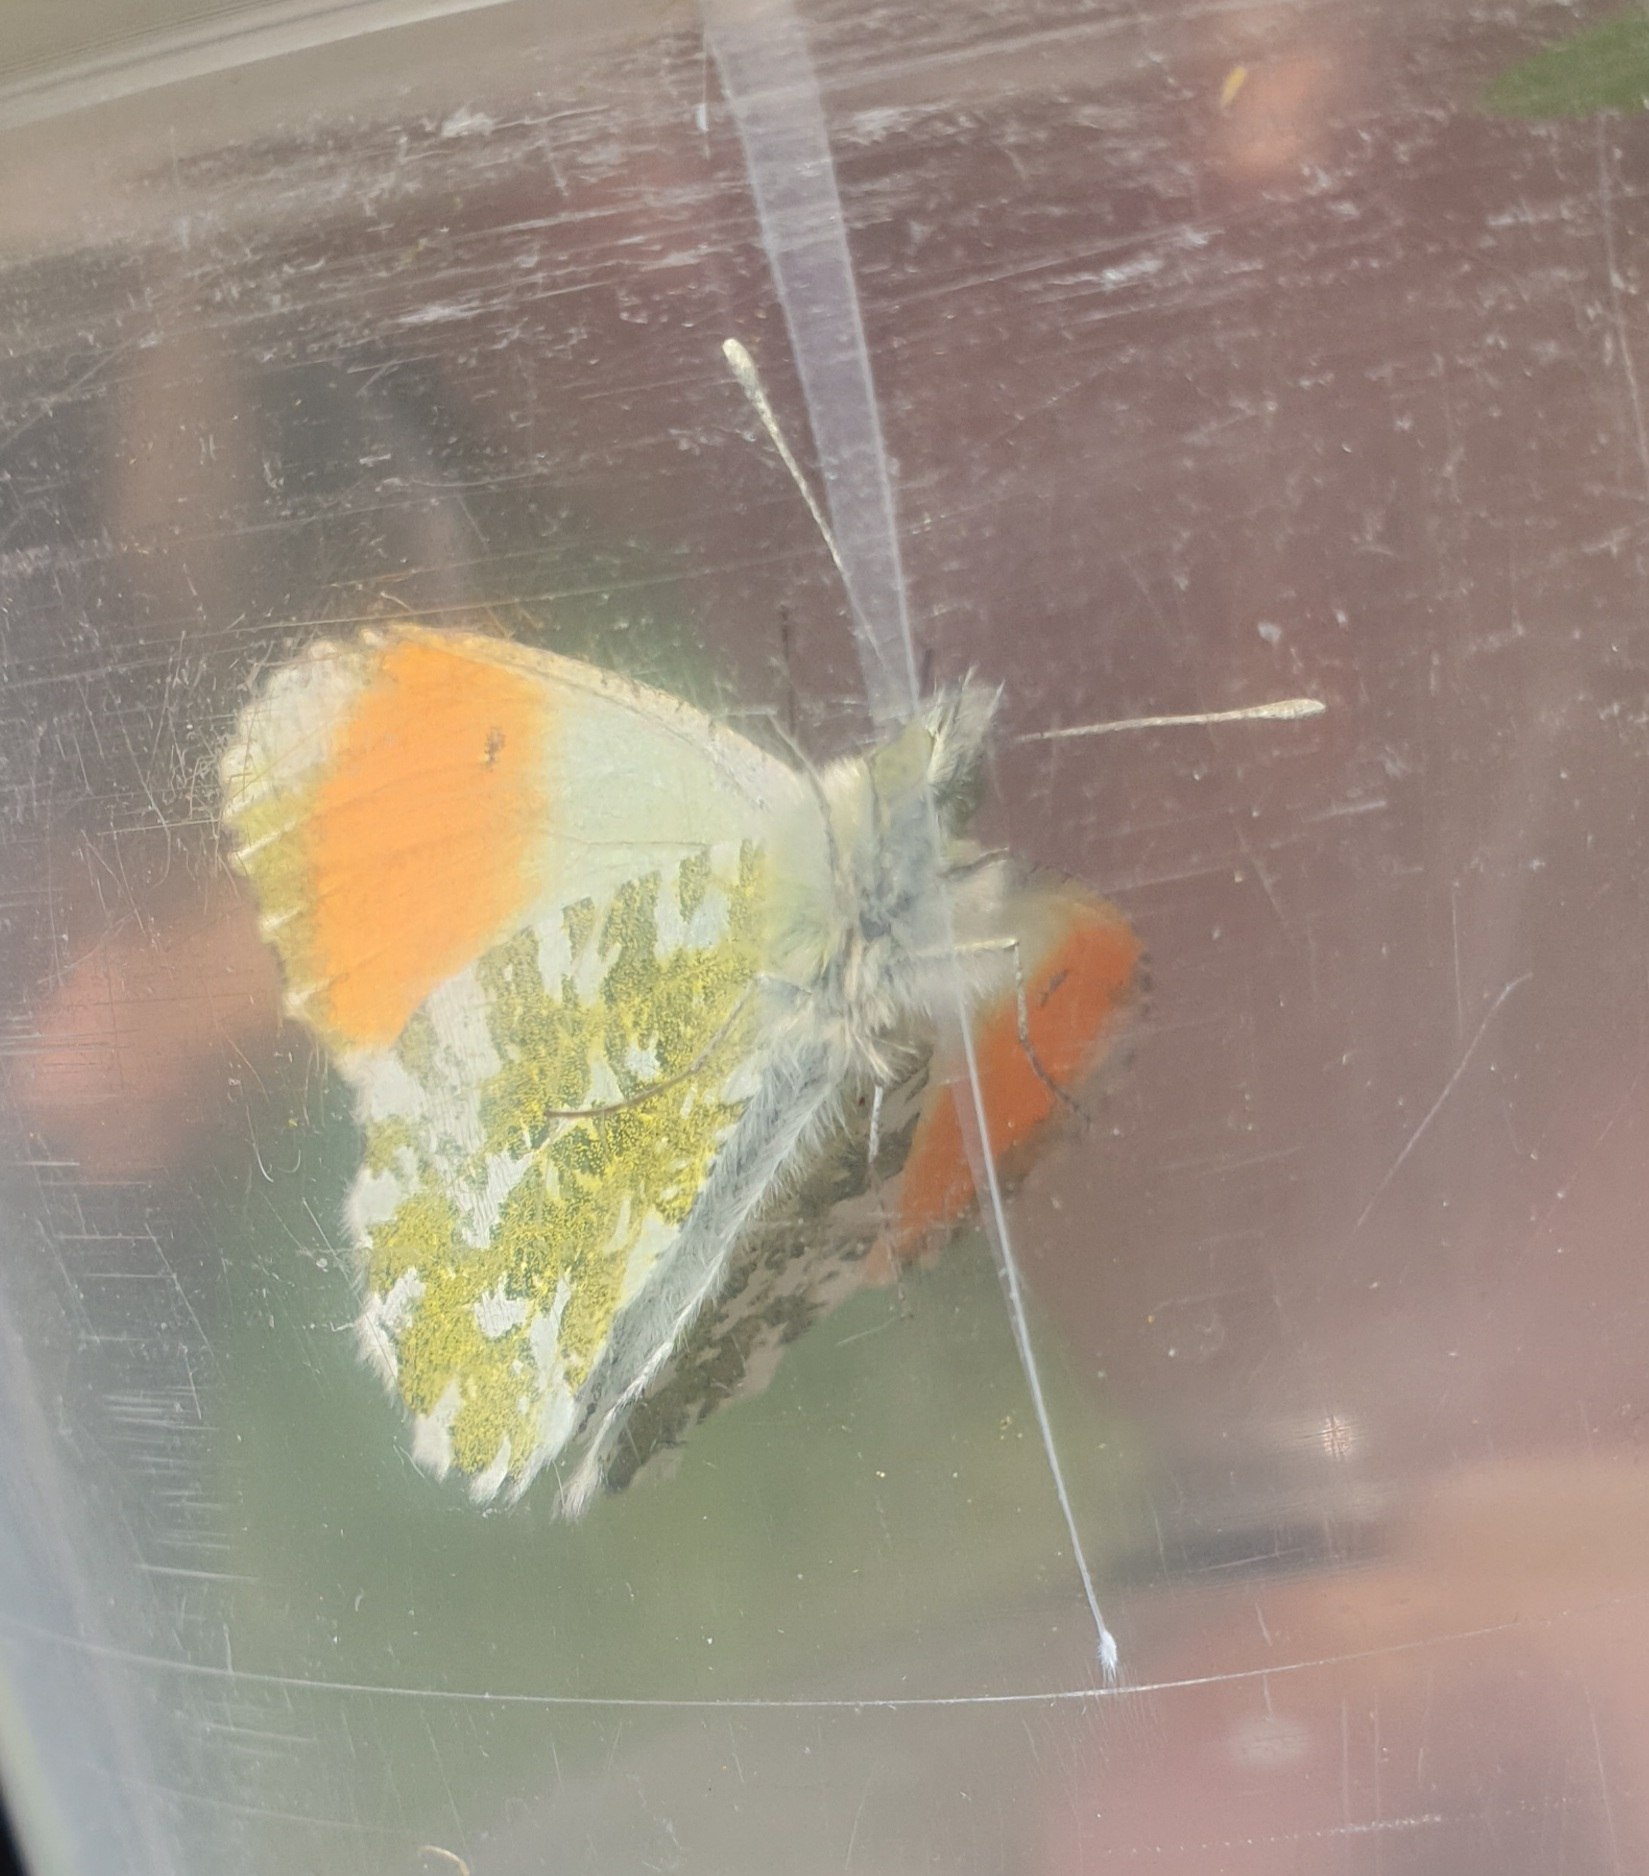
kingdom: Animalia
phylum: Arthropoda
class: Insecta
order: Lepidoptera
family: Pieridae
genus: Anthocharis
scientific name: Anthocharis cardamines
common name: Aurora
